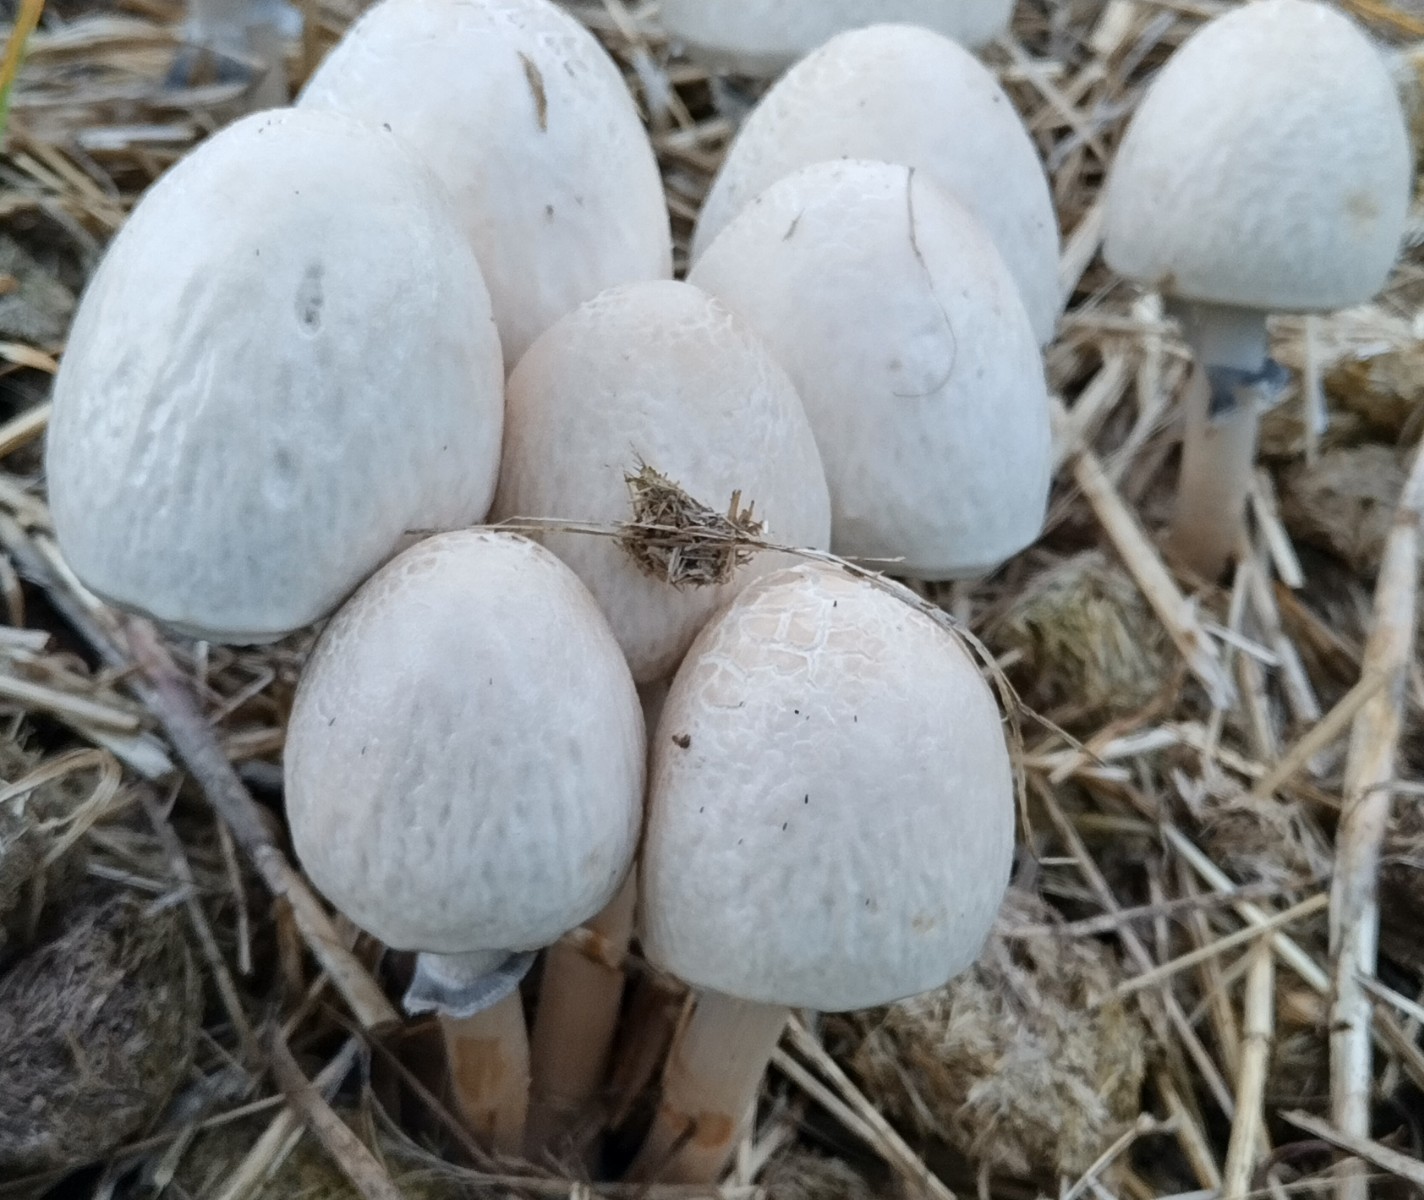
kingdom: Fungi
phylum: Basidiomycota
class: Agaricomycetes
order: Agaricales
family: Bolbitiaceae
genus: Panaeolus
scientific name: Panaeolus semiovatus
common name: ring-glanshat
